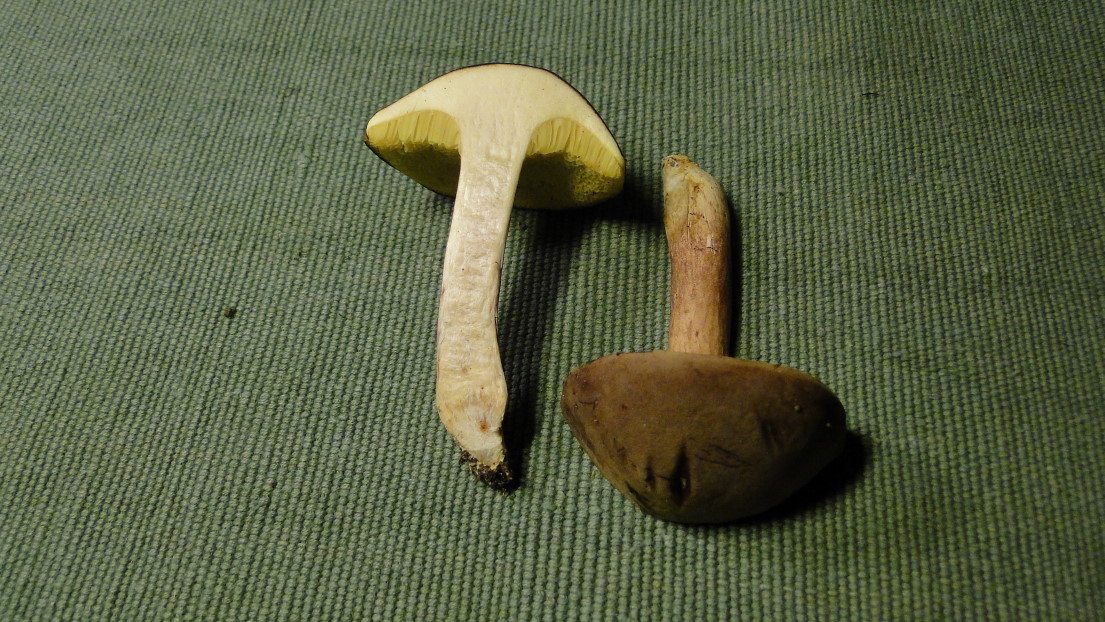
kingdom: Fungi
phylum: Basidiomycota
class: Agaricomycetes
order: Boletales
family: Boletaceae
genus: Xerocomus
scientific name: Xerocomus subtomentosus
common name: filtet rørhat
